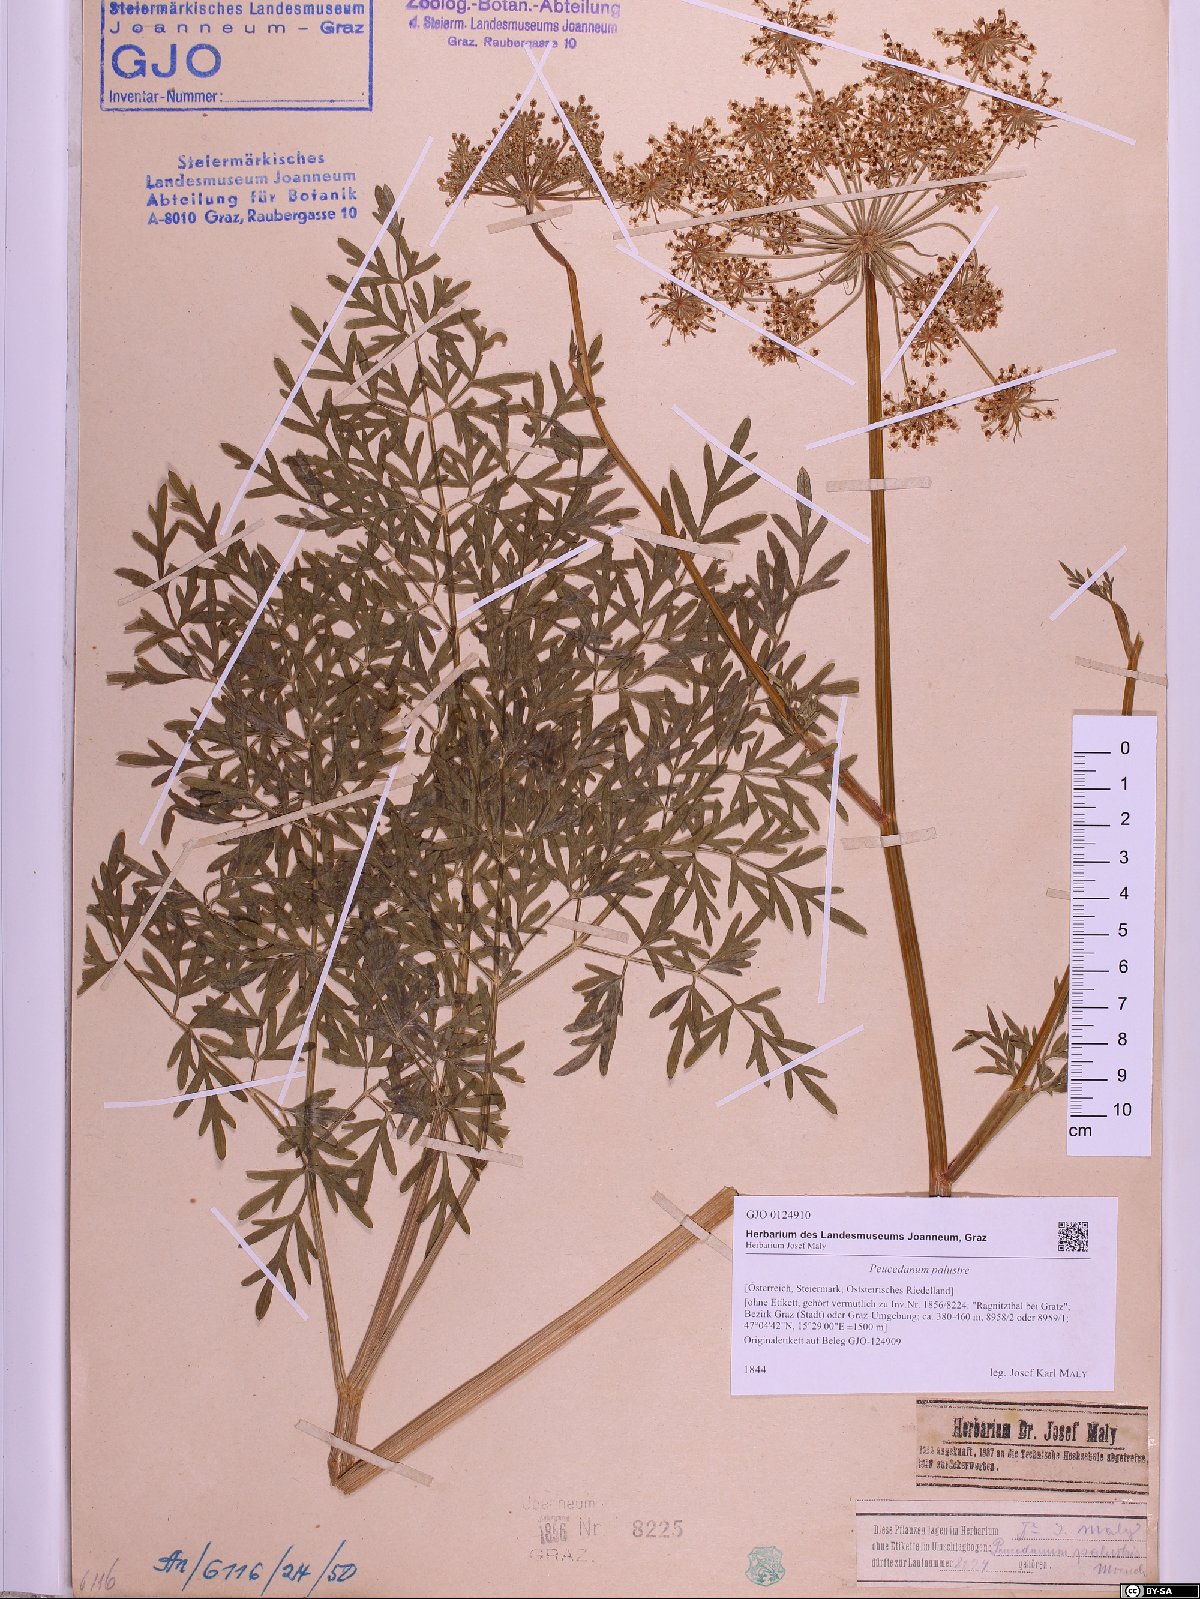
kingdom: Plantae
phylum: Tracheophyta
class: Magnoliopsida
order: Apiales
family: Apiaceae
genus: Thysselinum
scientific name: Thysselinum palustre
